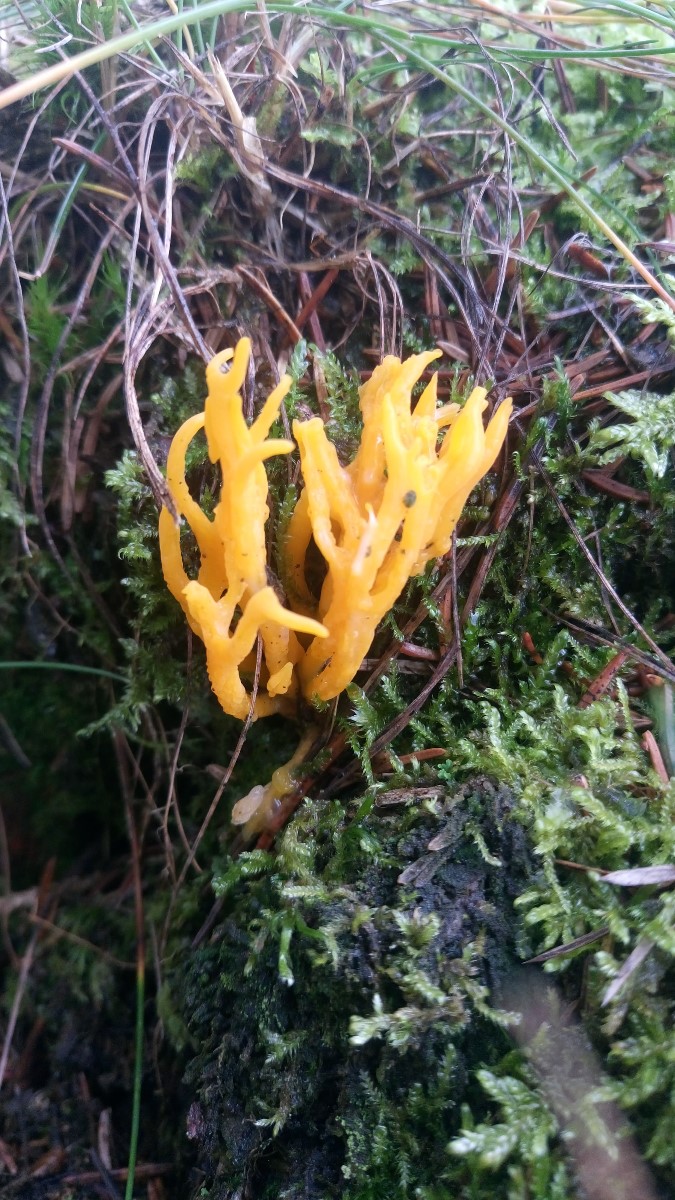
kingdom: Fungi
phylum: Basidiomycota
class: Dacrymycetes
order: Dacrymycetales
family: Dacrymycetaceae
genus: Calocera
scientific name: Calocera viscosa
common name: almindelig guldgaffel
